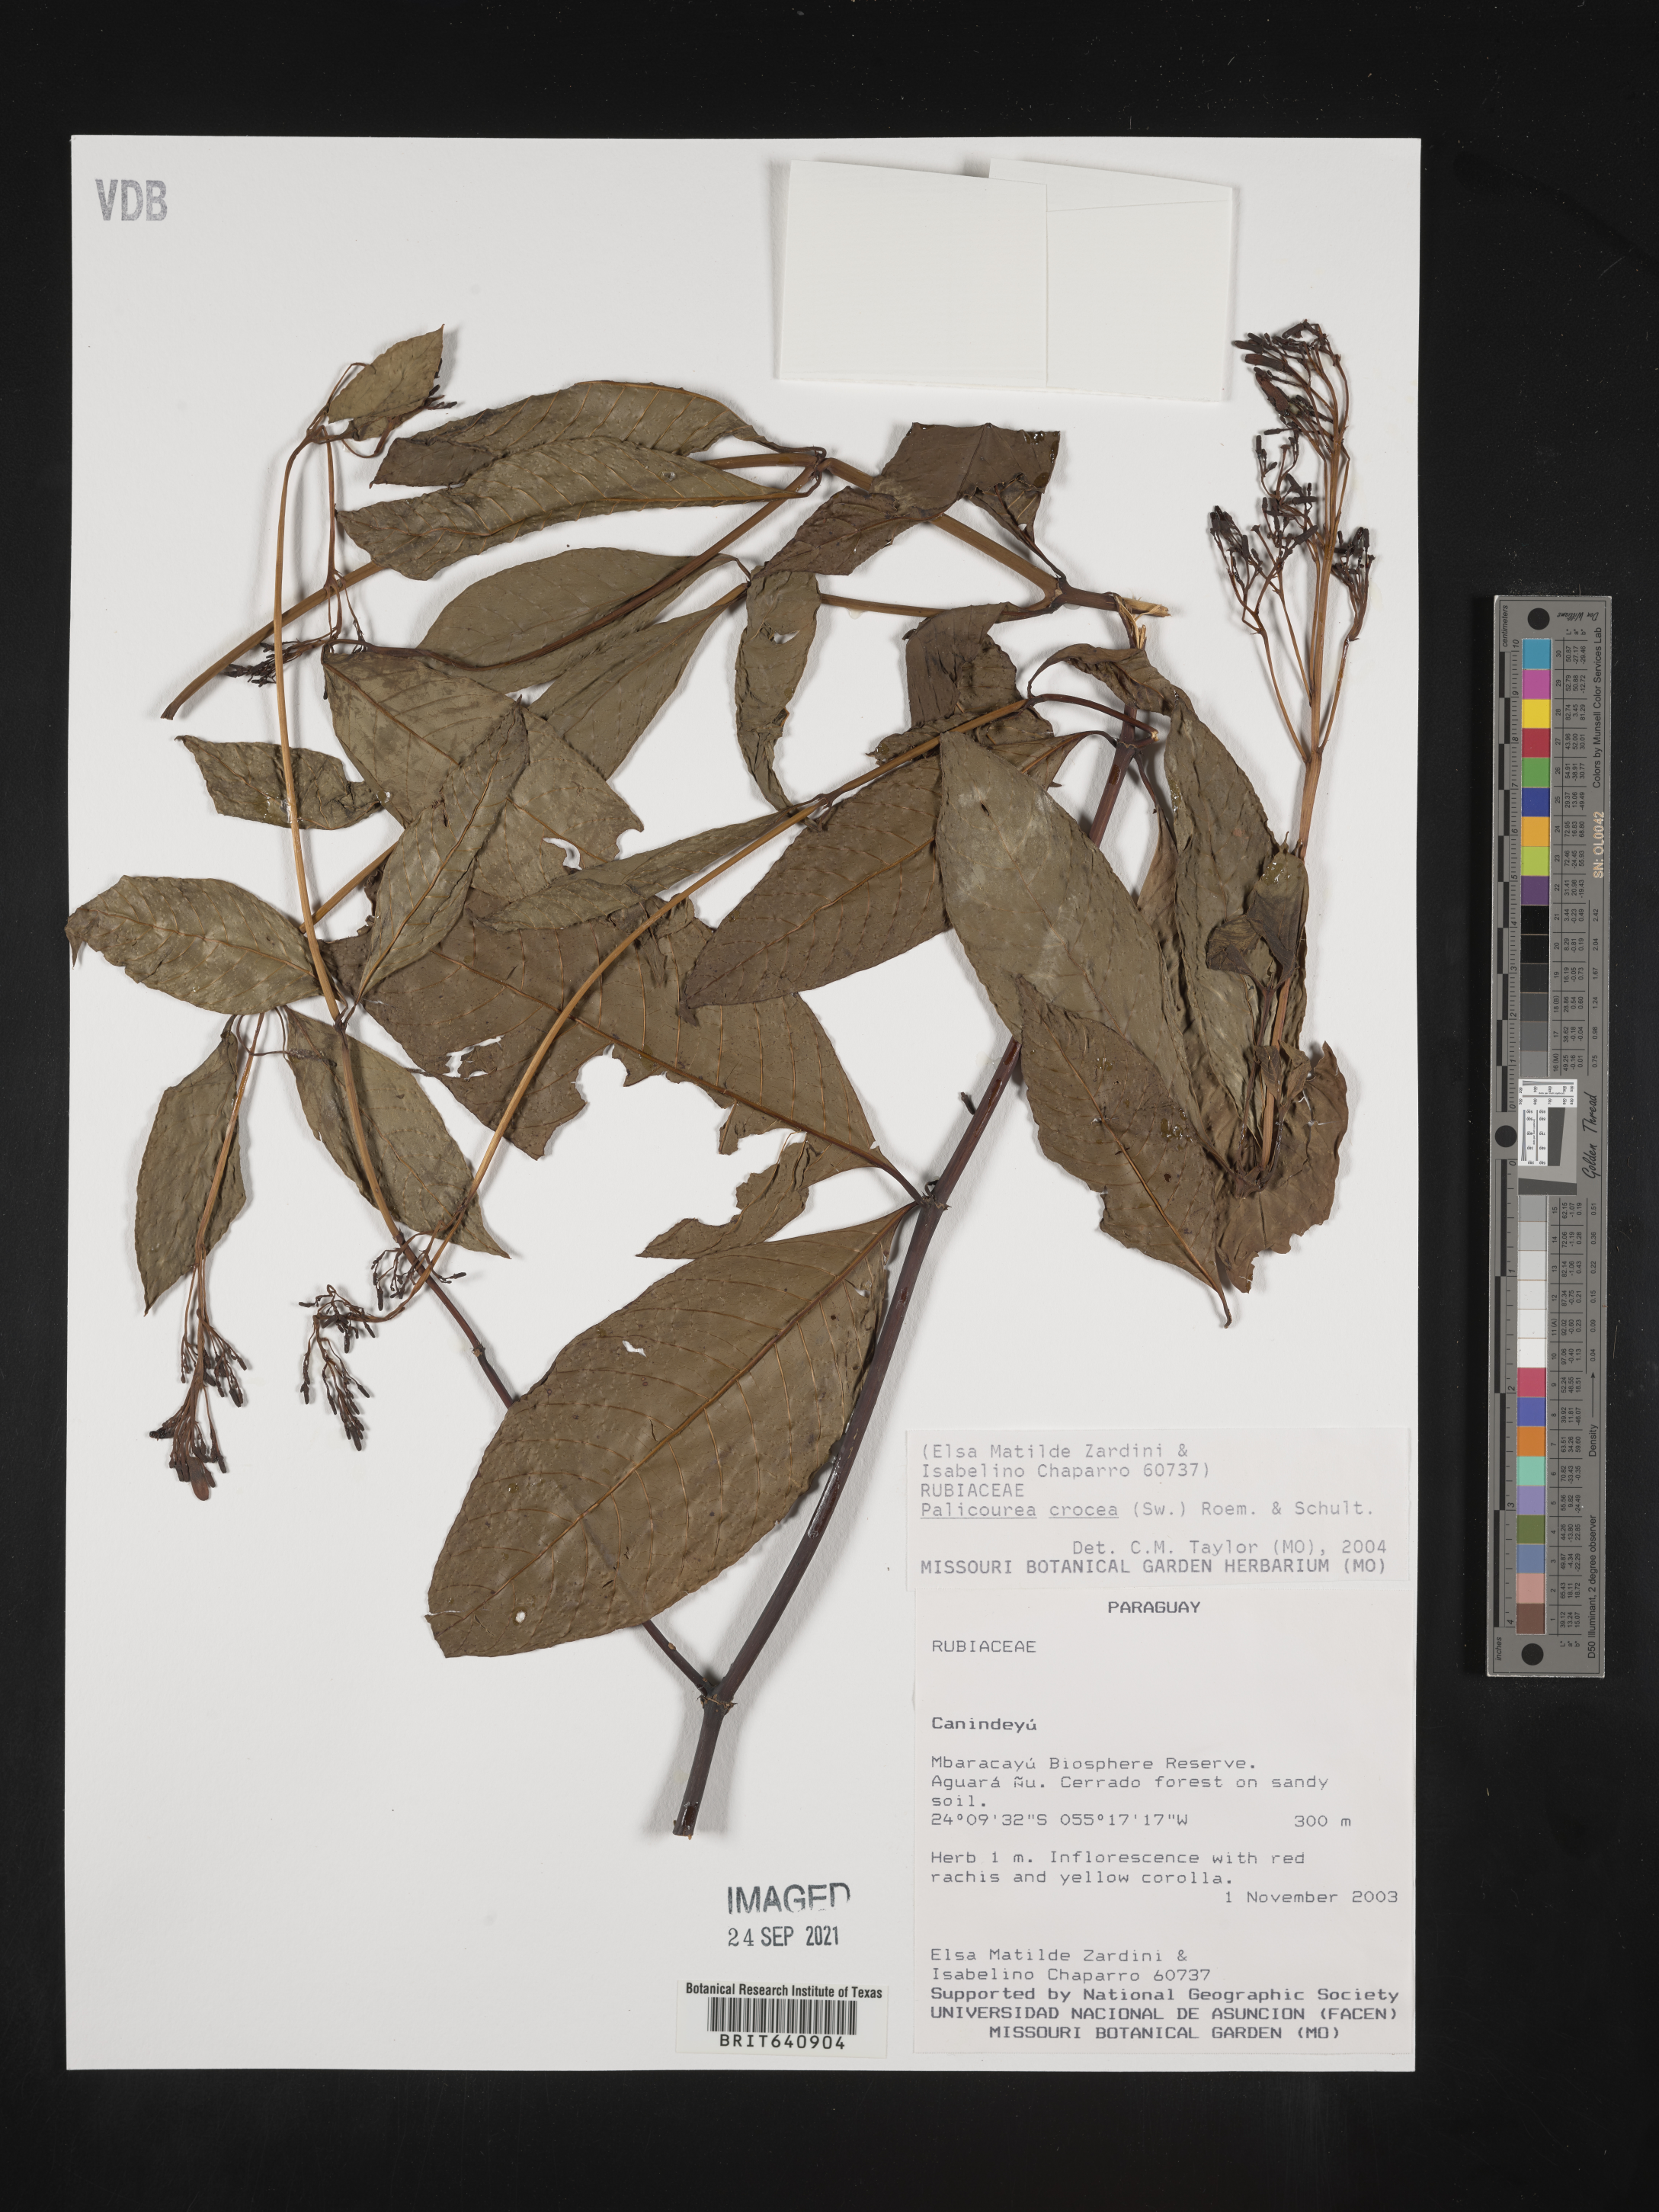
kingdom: Plantae
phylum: Tracheophyta
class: Magnoliopsida
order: Gentianales
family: Rubiaceae
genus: Palicourea
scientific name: Palicourea
